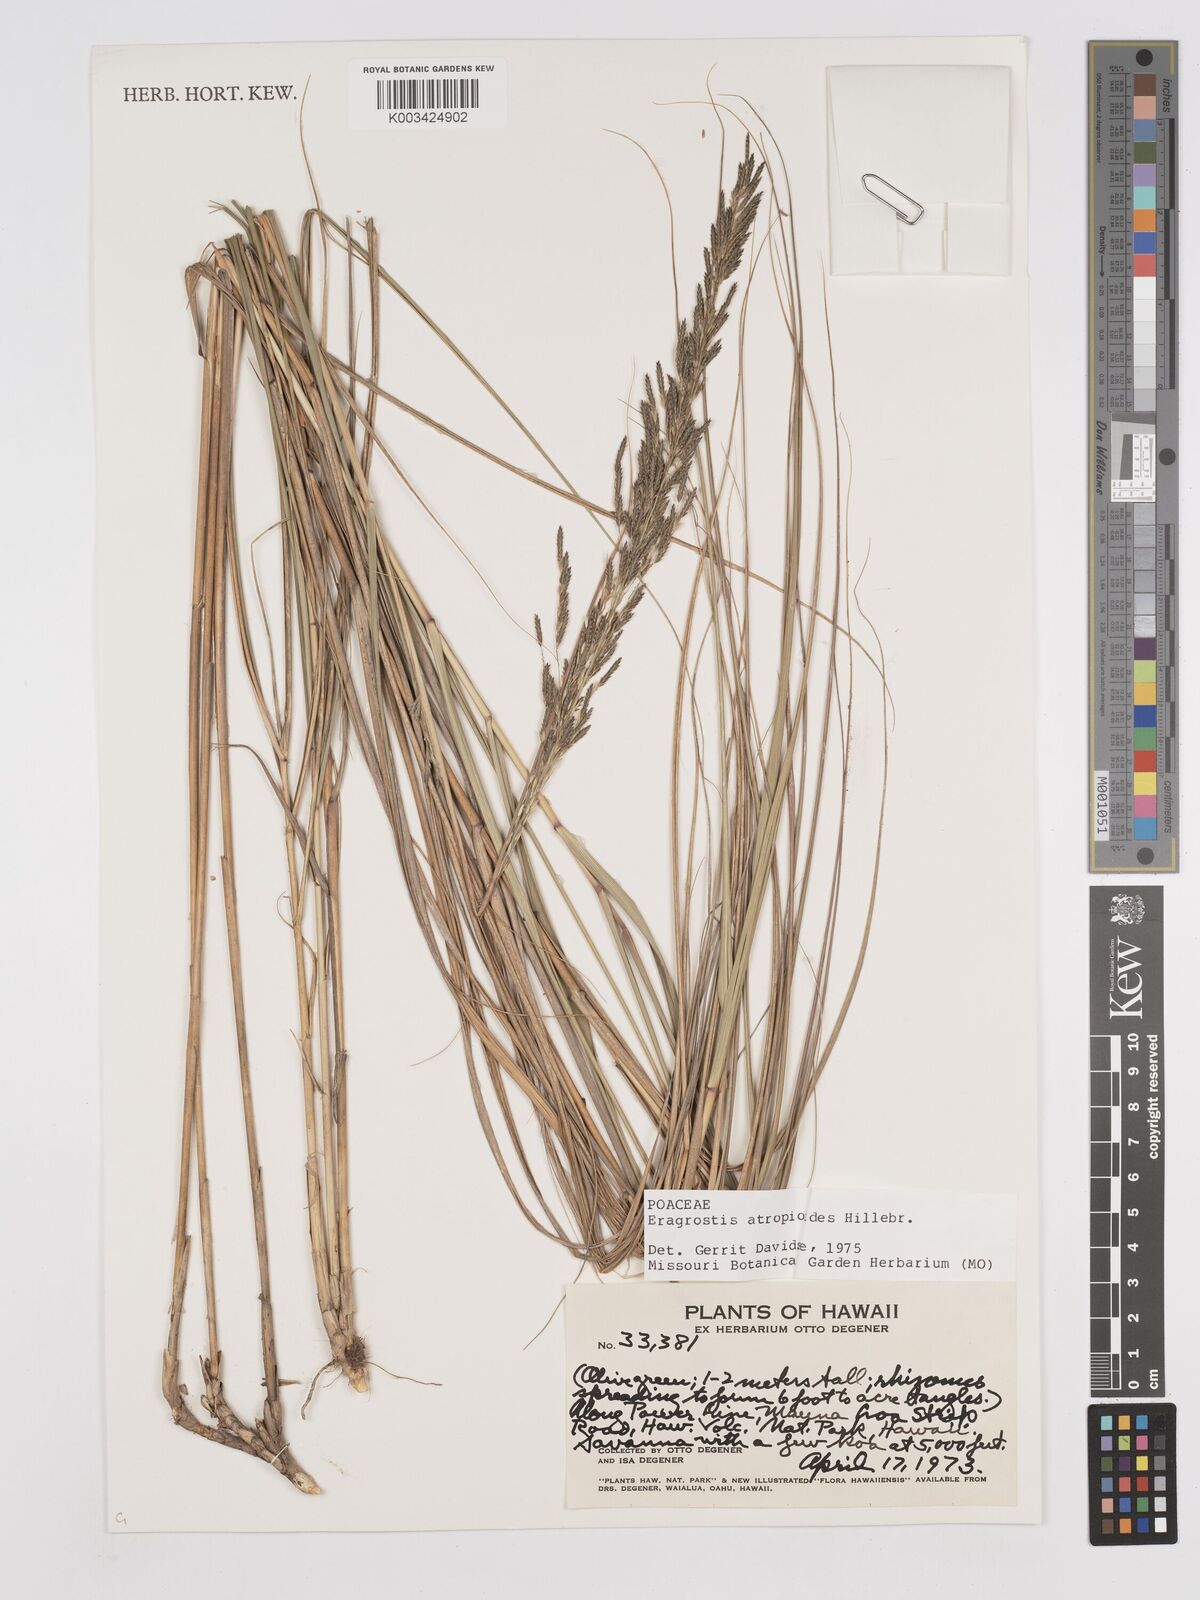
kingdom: Plantae
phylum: Tracheophyta
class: Liliopsida
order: Poales
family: Poaceae
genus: Eragrostis
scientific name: Eragrostis atropioides
